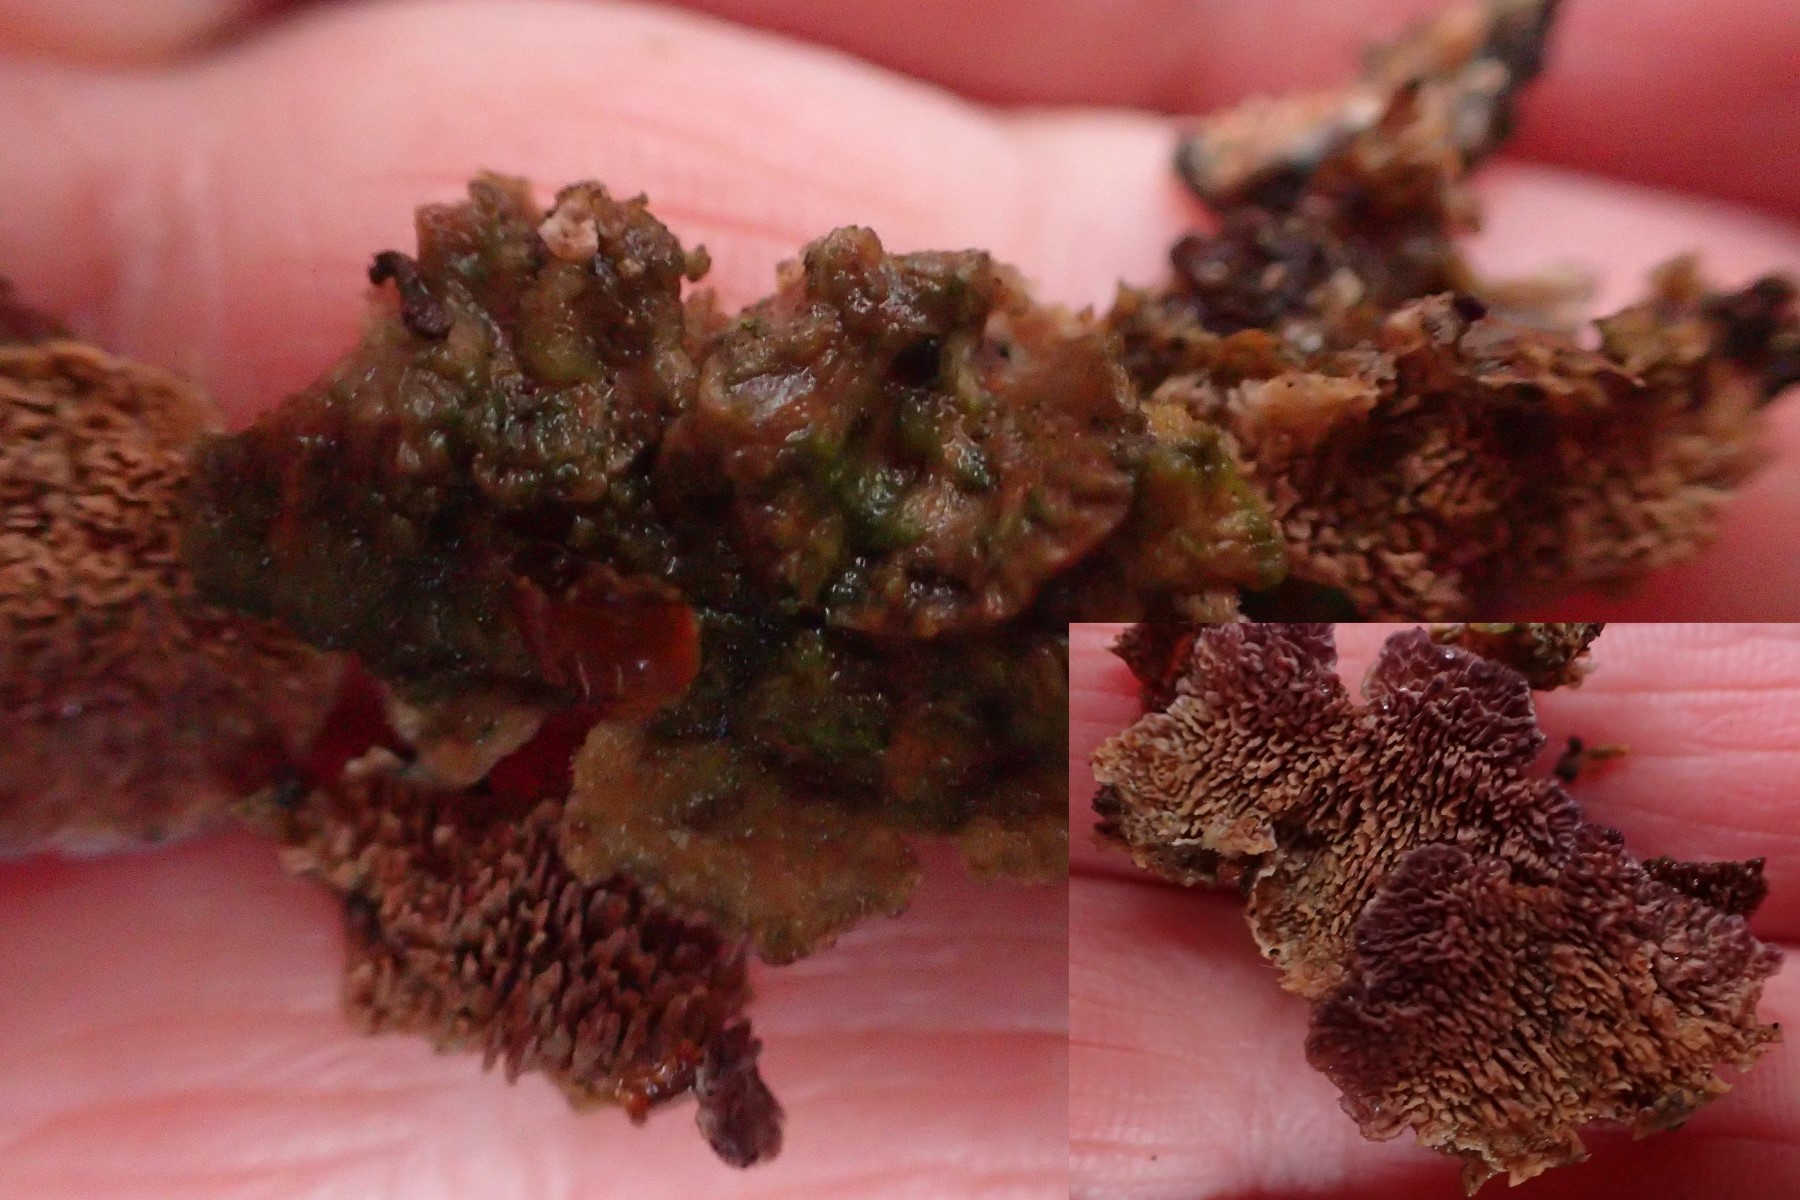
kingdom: Fungi
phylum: Basidiomycota
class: Agaricomycetes
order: Hymenochaetales
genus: Trichaptum
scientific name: Trichaptum fuscoviolaceum
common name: tandet violporesvamp
